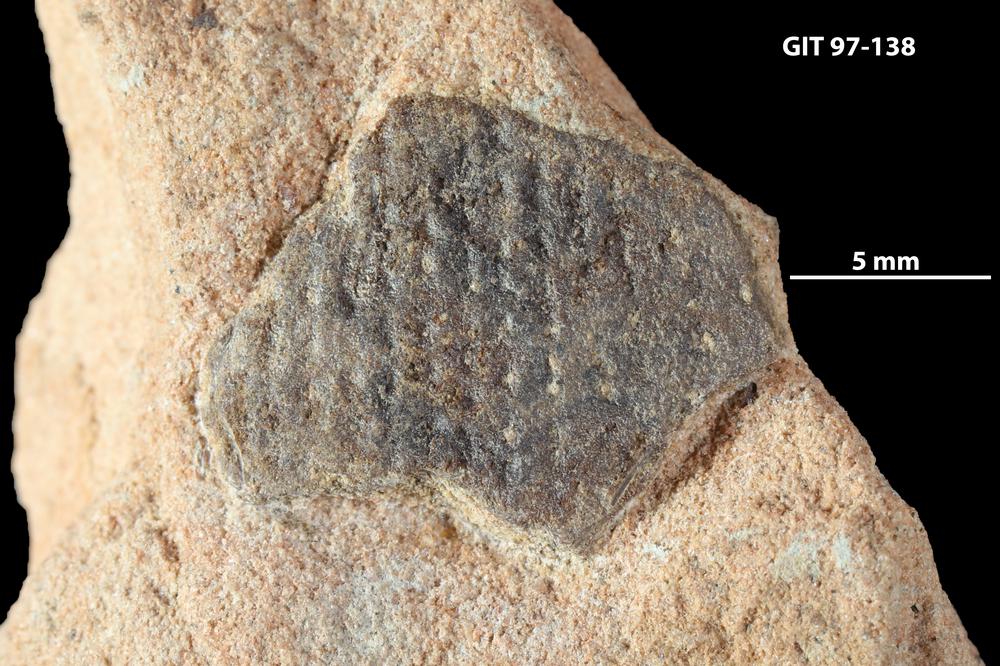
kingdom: Animalia
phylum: Chordata
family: Holonematidae
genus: Holonema
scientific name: Holonema
